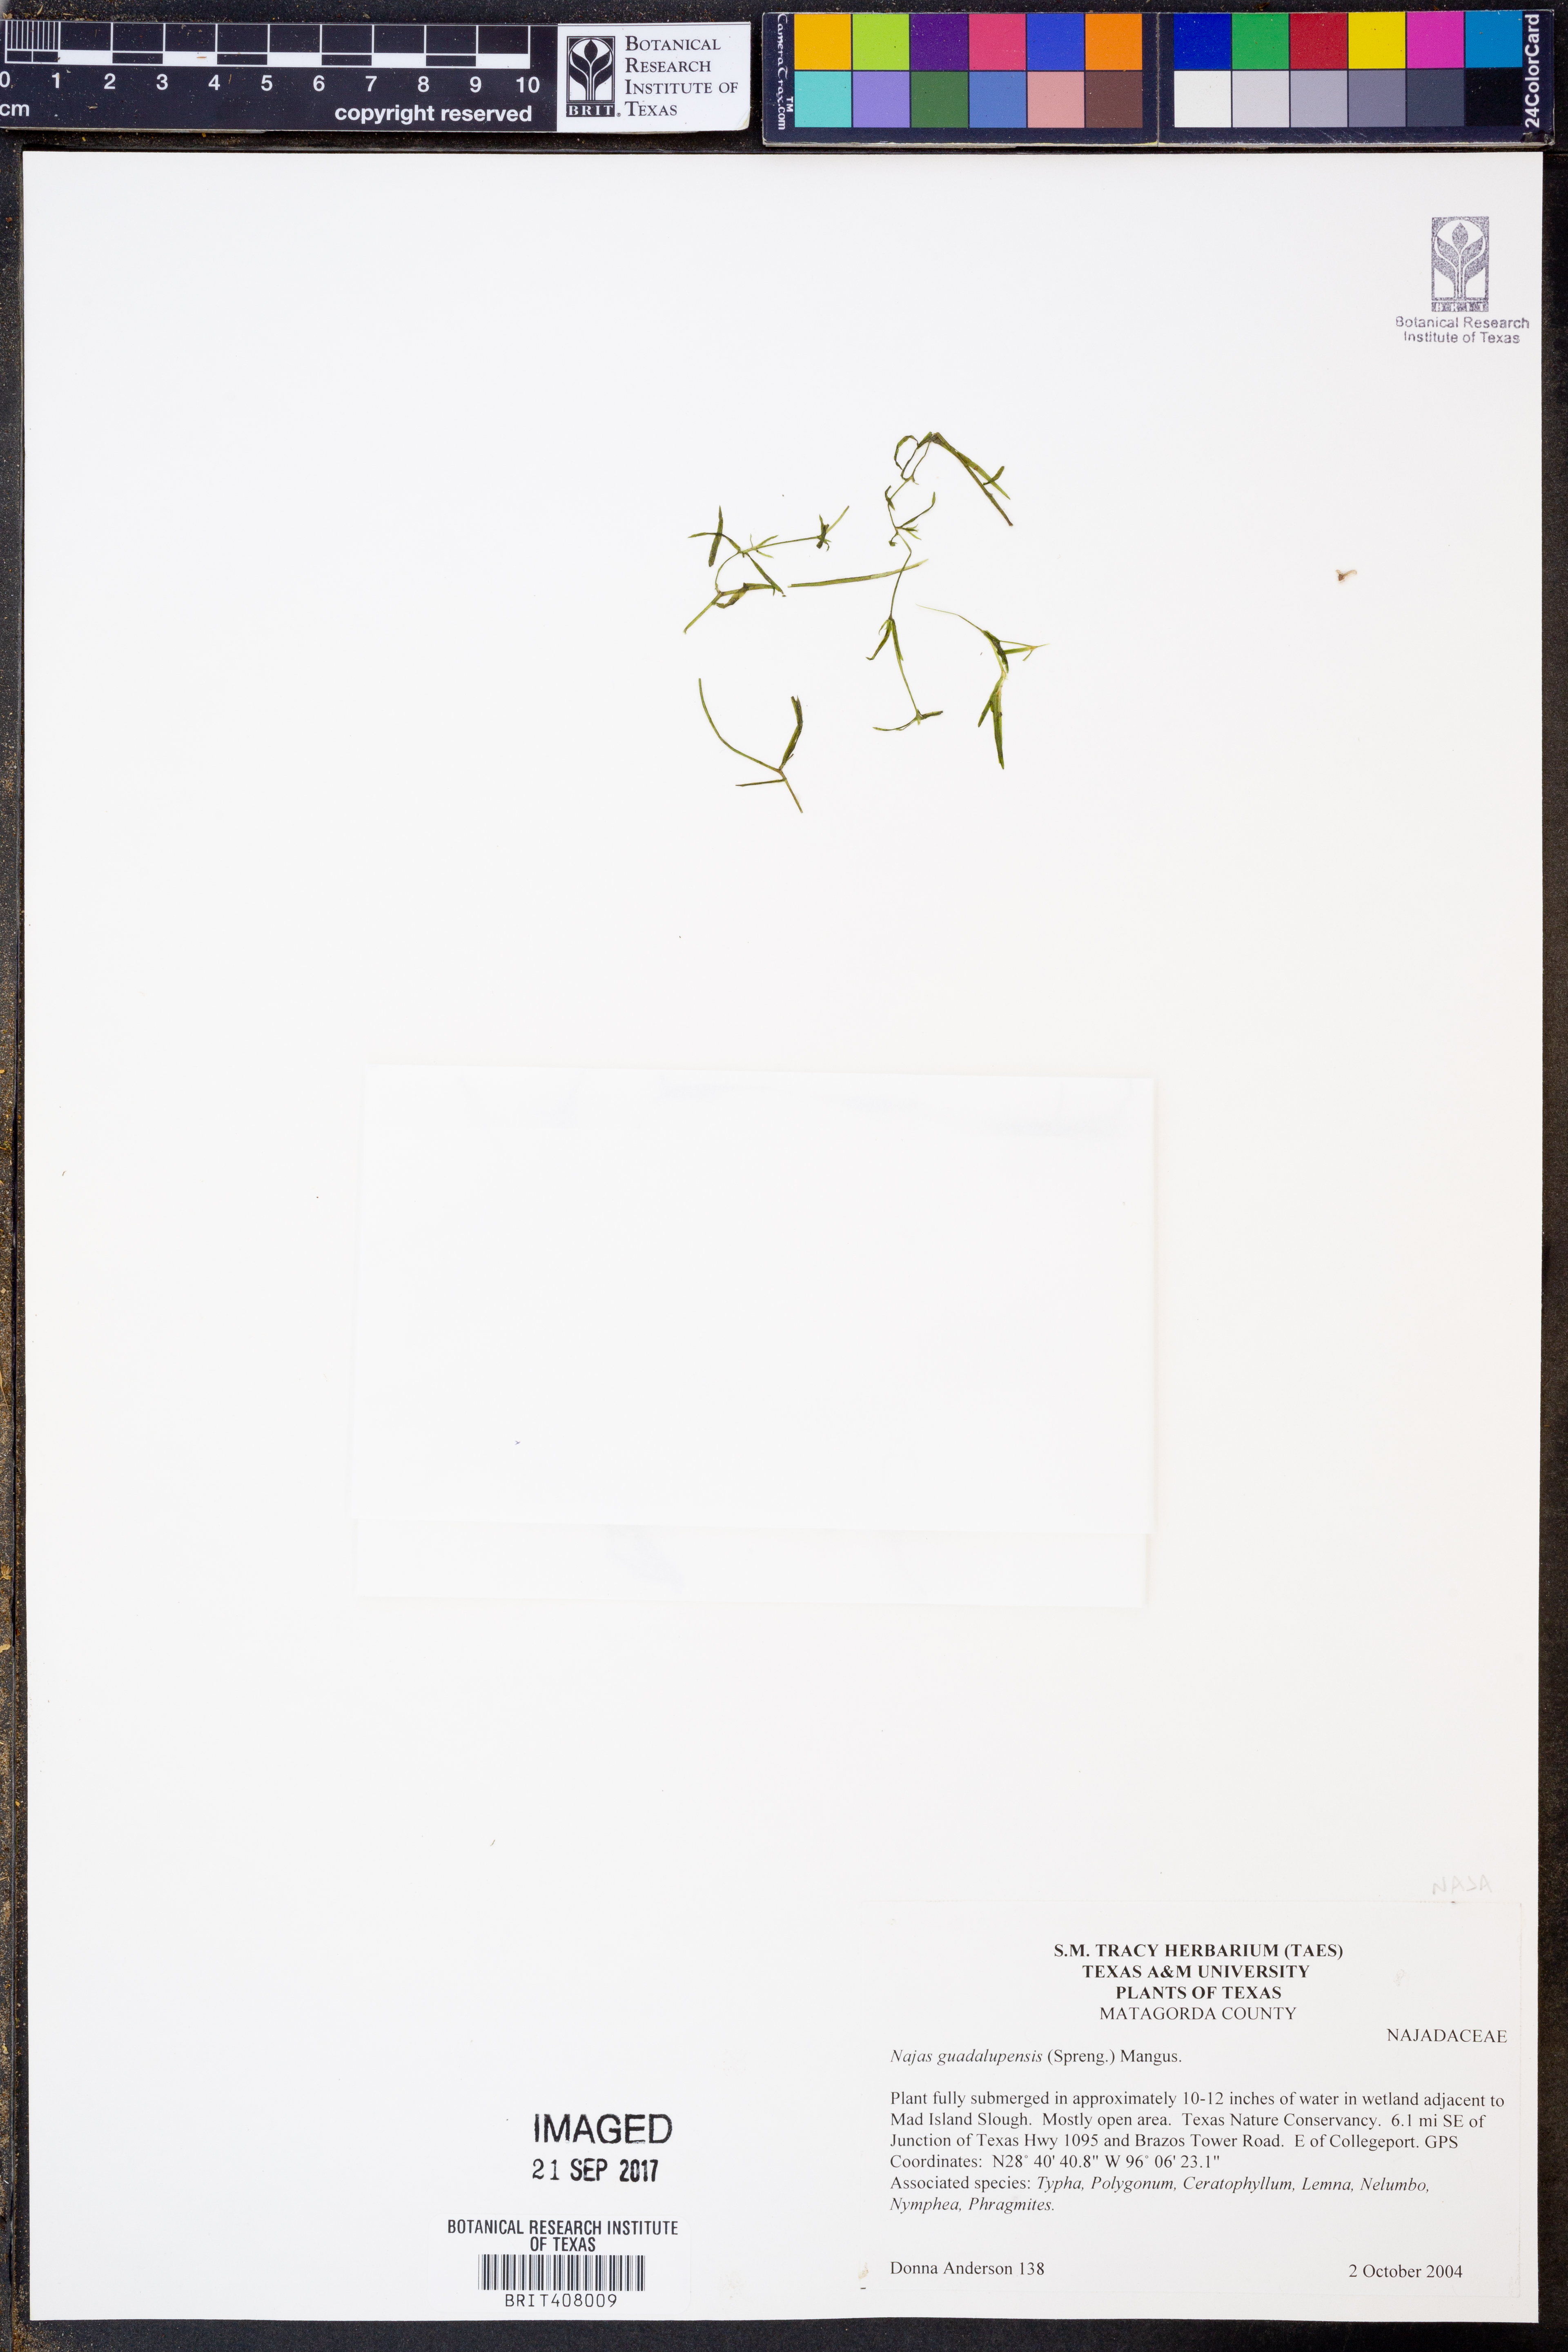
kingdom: Plantae
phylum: Tracheophyta
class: Liliopsida
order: Alismatales
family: Hydrocharitaceae
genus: Najas
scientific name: Najas guadalupensis
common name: Southern naiad
